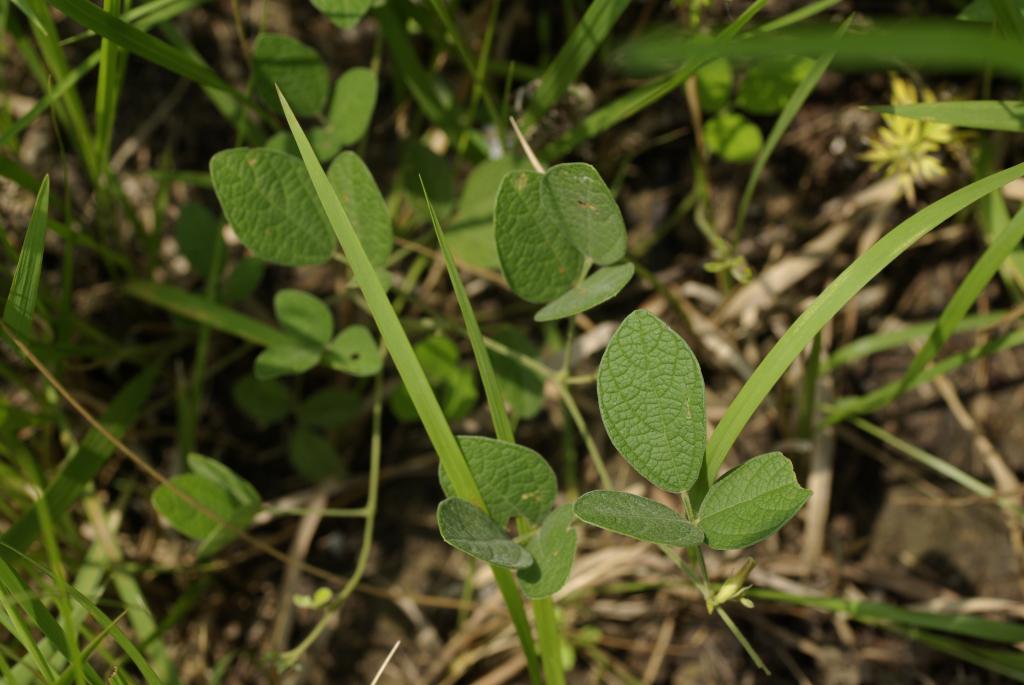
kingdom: Plantae
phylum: Tracheophyta
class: Magnoliopsida
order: Fabales
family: Fabaceae
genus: Cajanus
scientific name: Cajanus scarabaeoides
